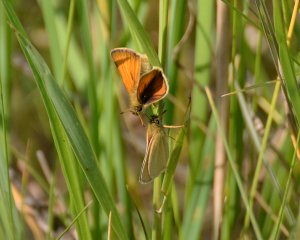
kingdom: Animalia
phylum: Arthropoda
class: Insecta
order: Lepidoptera
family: Hesperiidae
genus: Thymelicus
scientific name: Thymelicus lineola
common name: European Skipper
